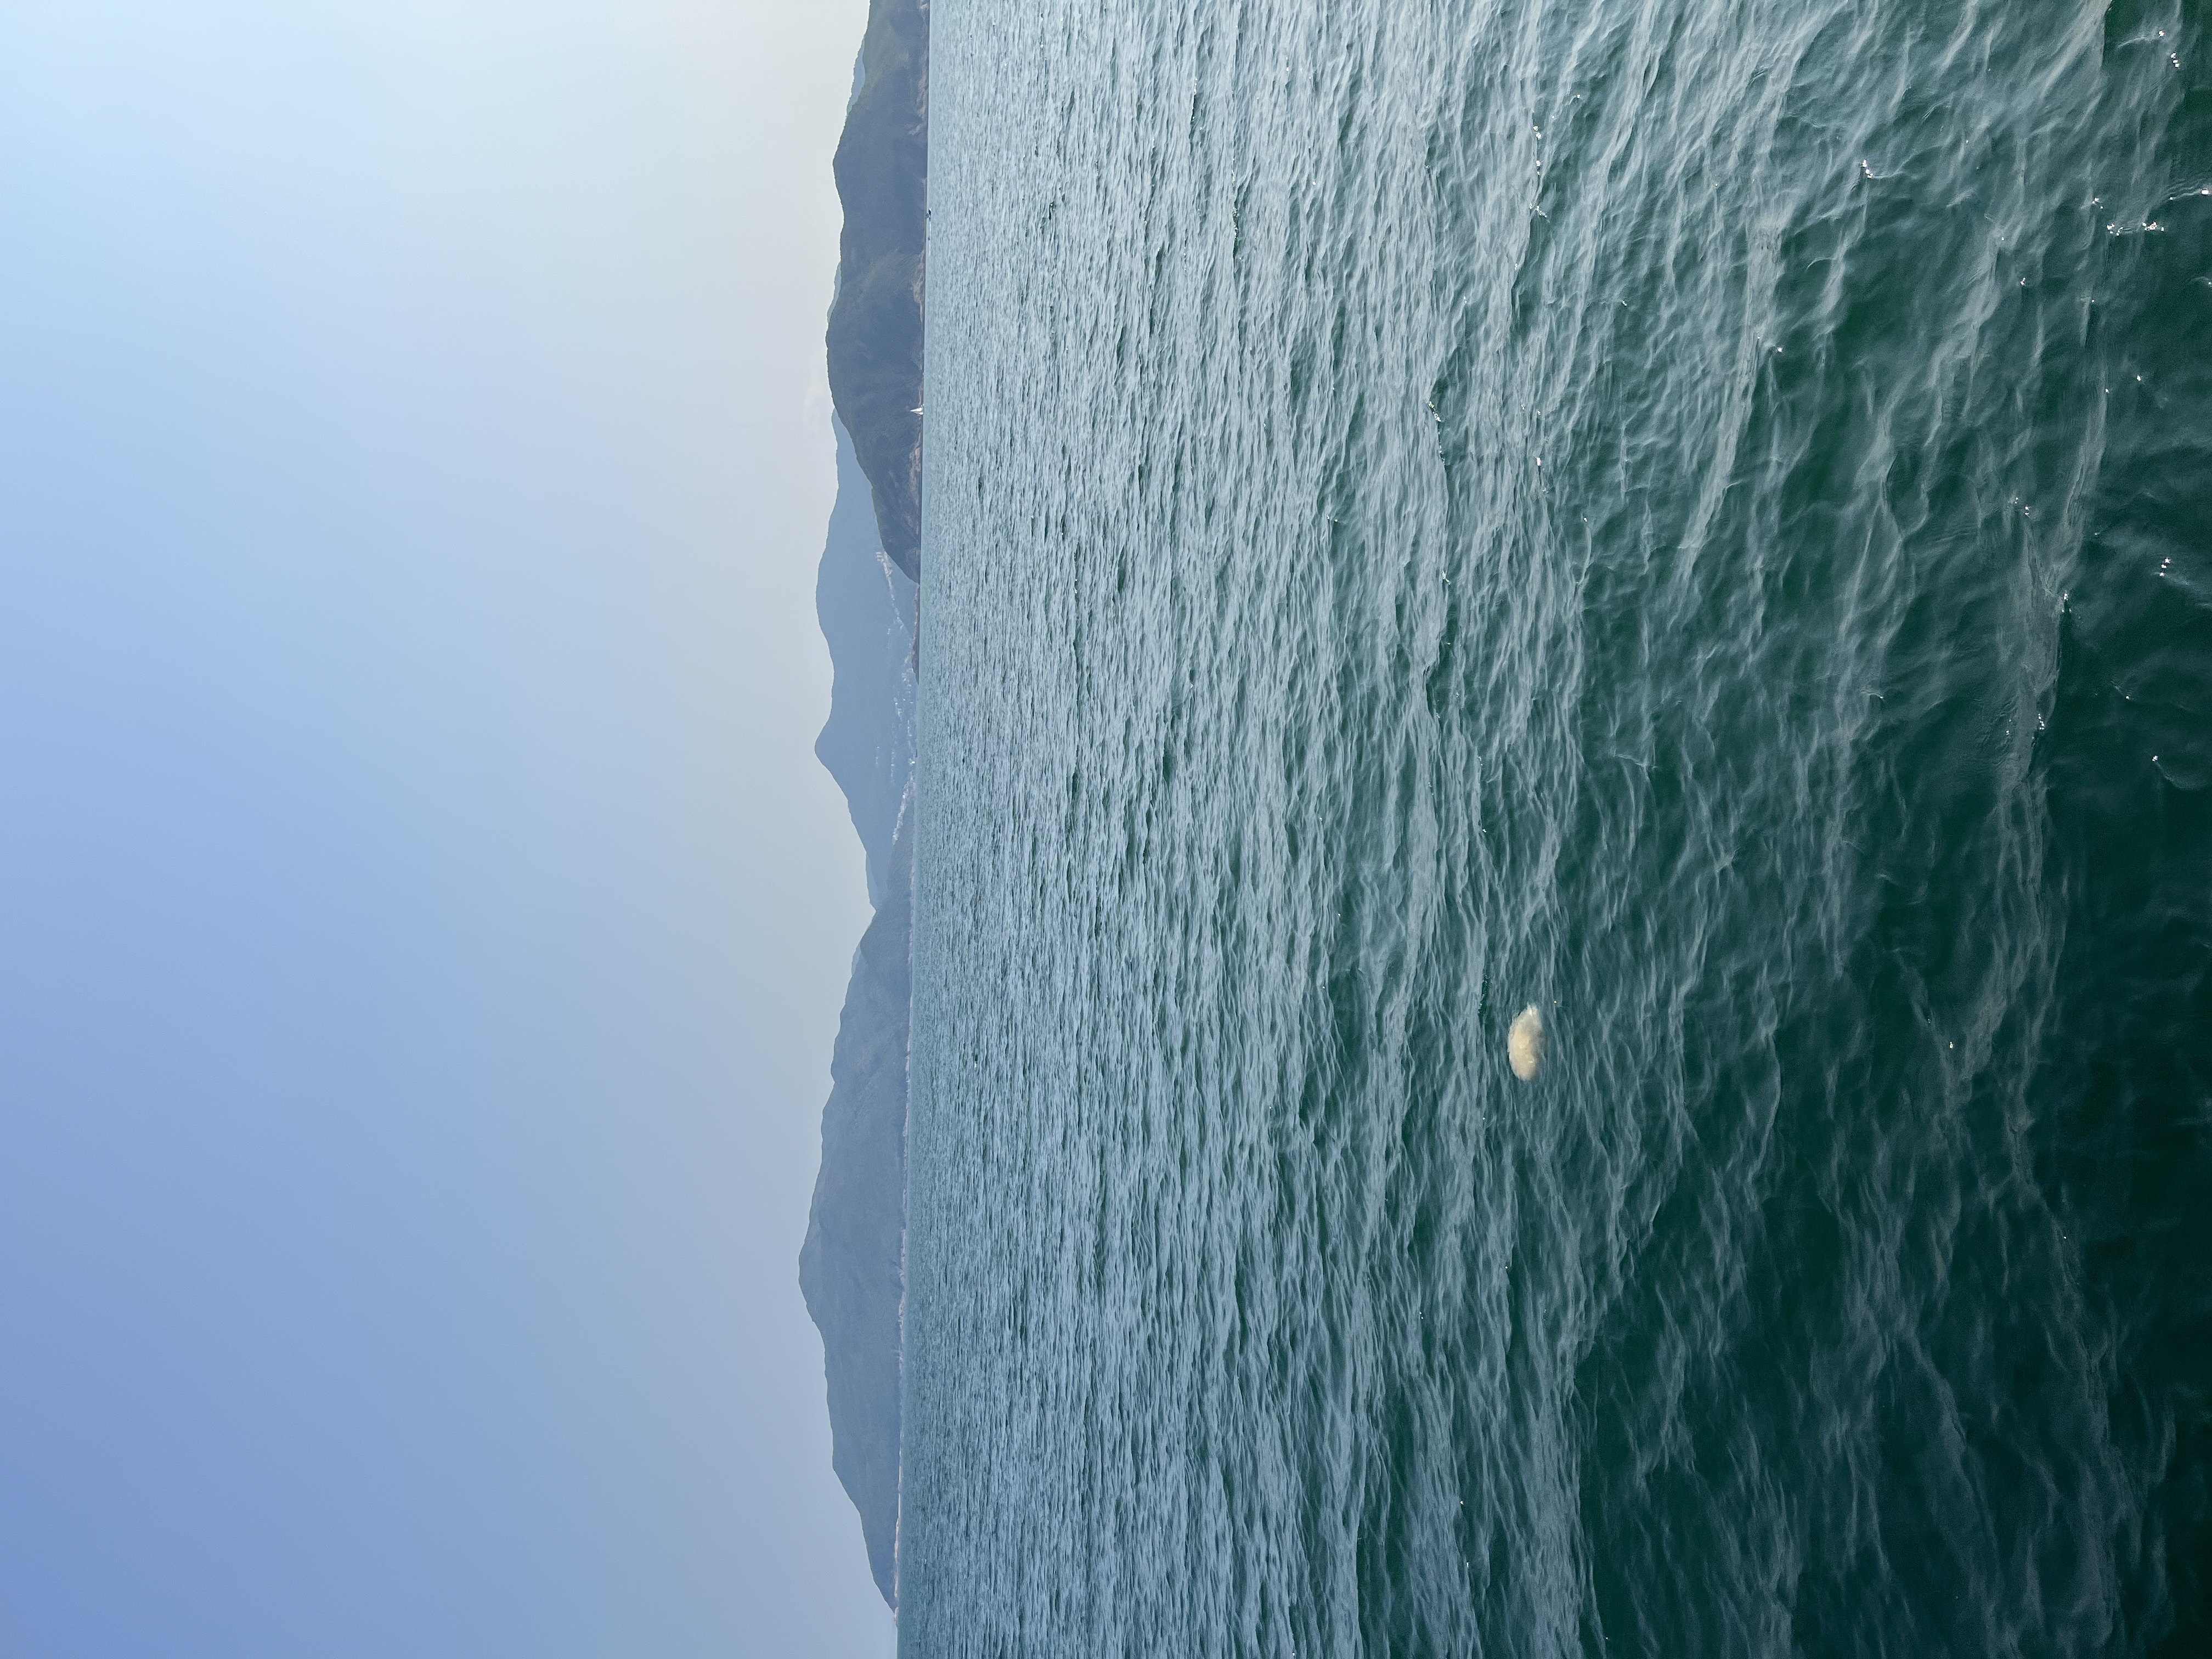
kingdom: Animalia
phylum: Cnidaria
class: Scyphozoa
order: Semaeostomeae
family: Cyaneidae
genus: Cyanea
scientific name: Cyanea nozakii
